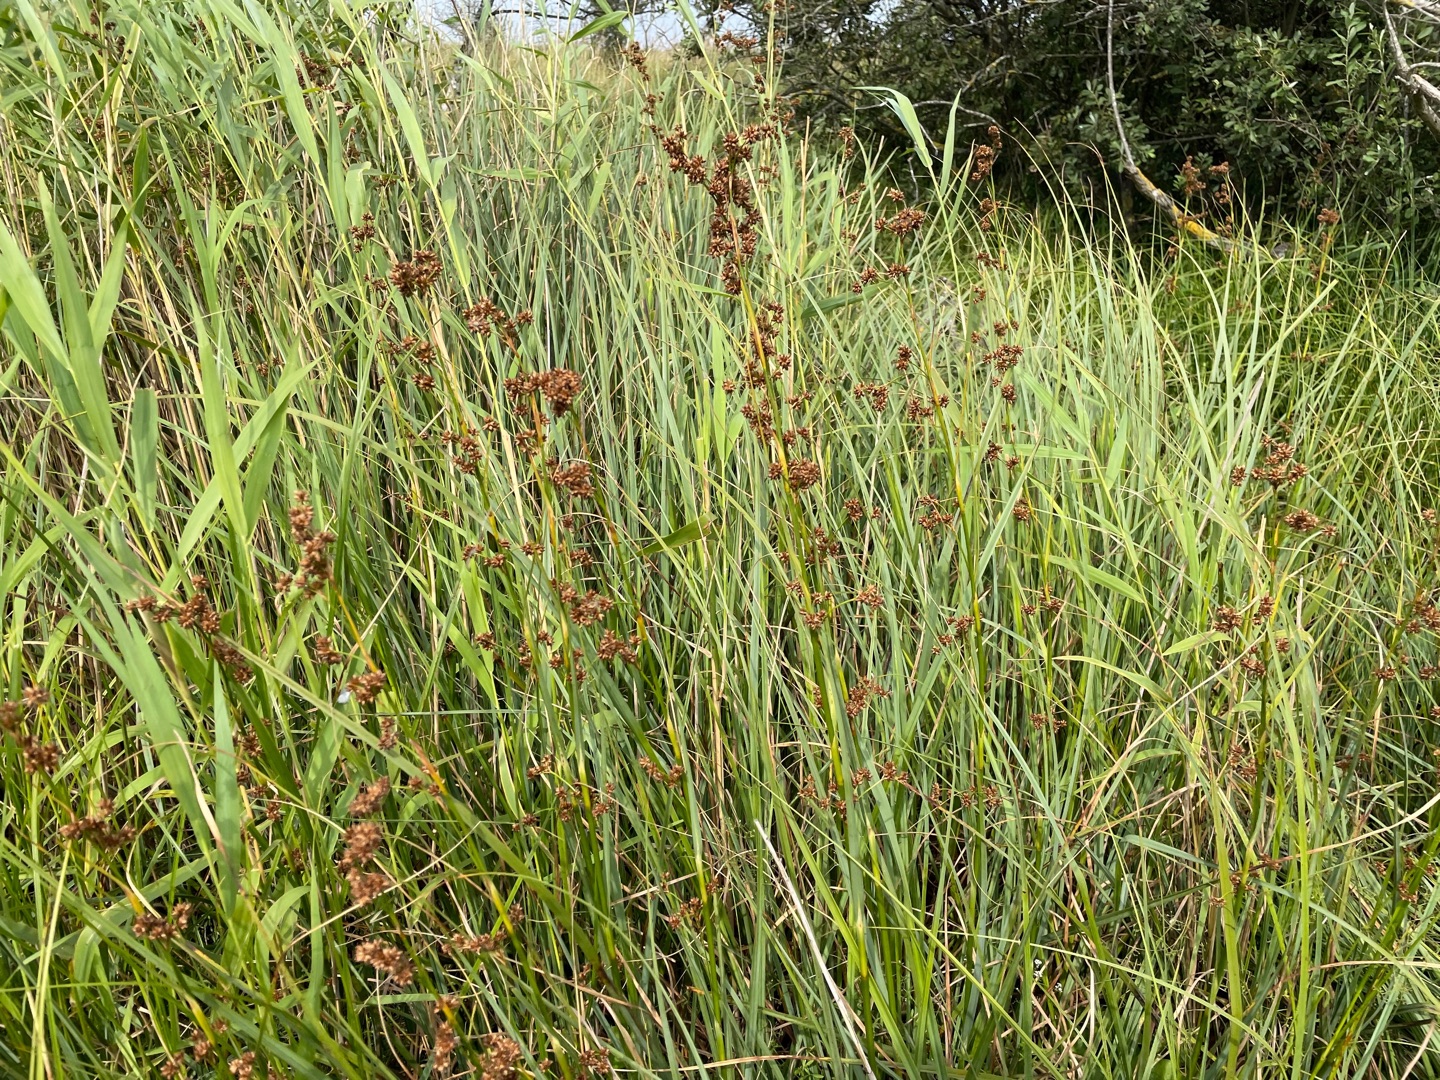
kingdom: Plantae
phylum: Tracheophyta
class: Liliopsida
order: Poales
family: Cyperaceae
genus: Cladium
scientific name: Cladium mariscus
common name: Hvas avneknippe
